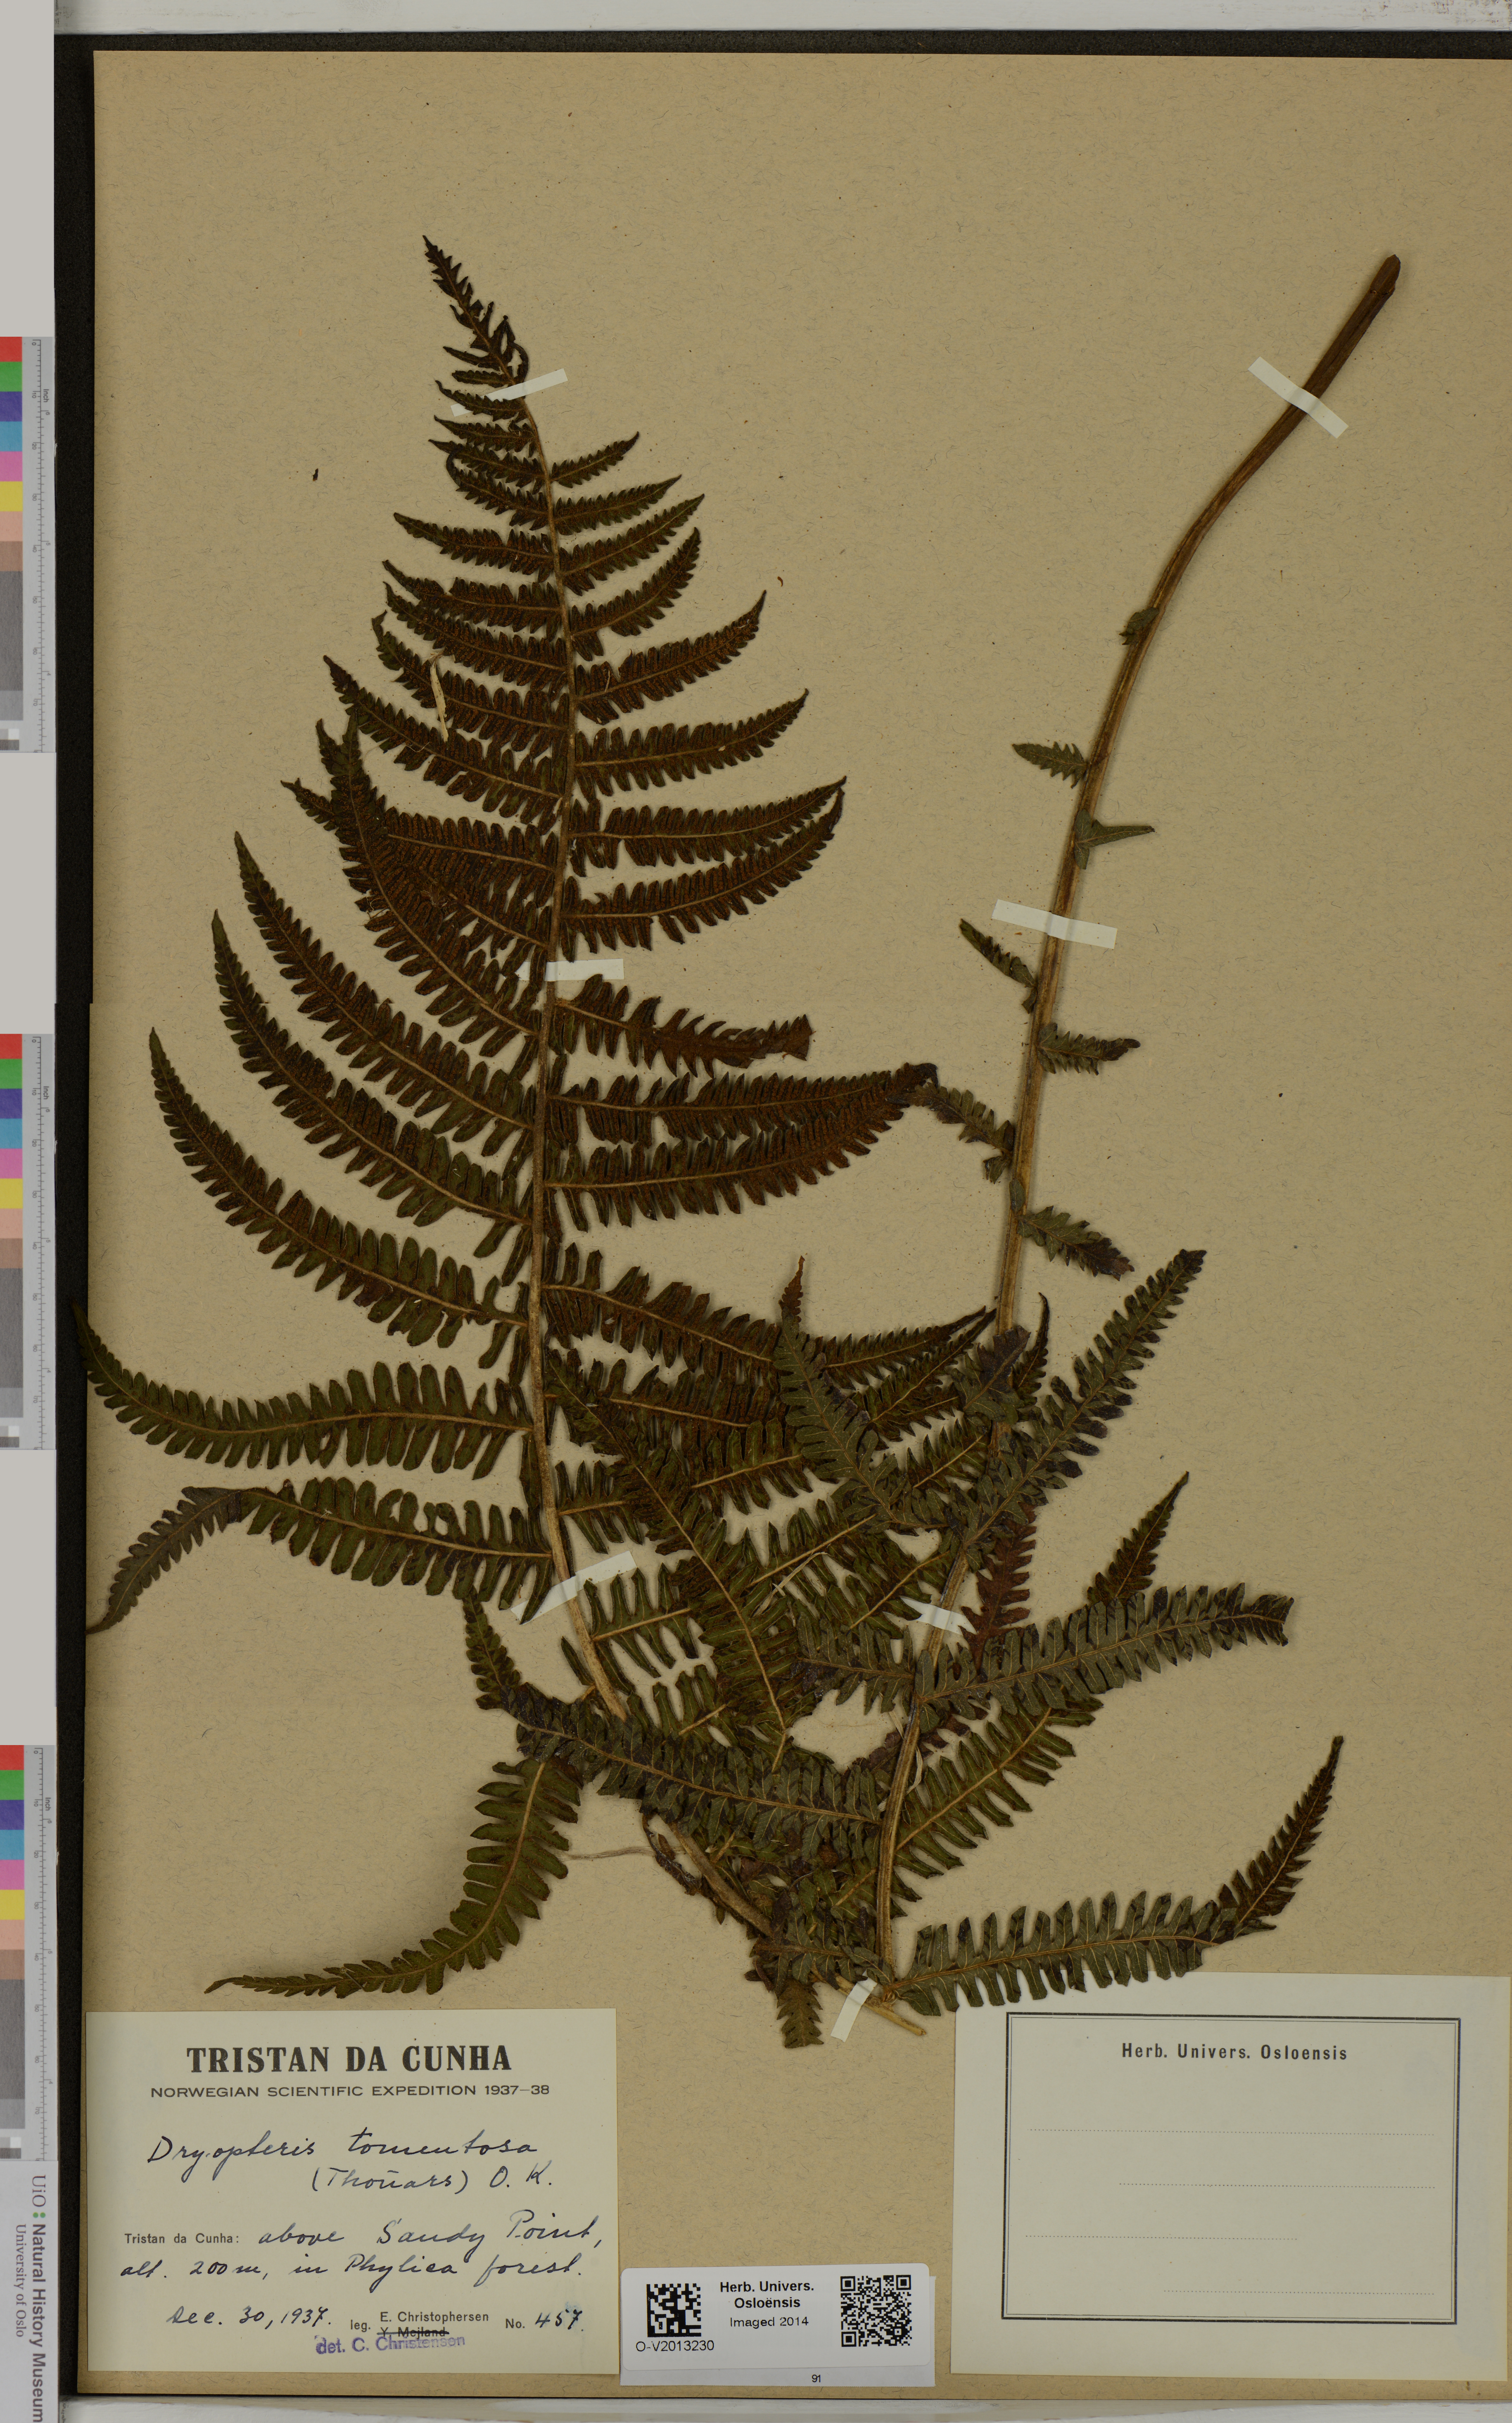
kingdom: Plantae
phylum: Tracheophyta
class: Polypodiopsida
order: Polypodiales
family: Thelypteridaceae
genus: Amauropelta
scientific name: Amauropelta tomentosa
